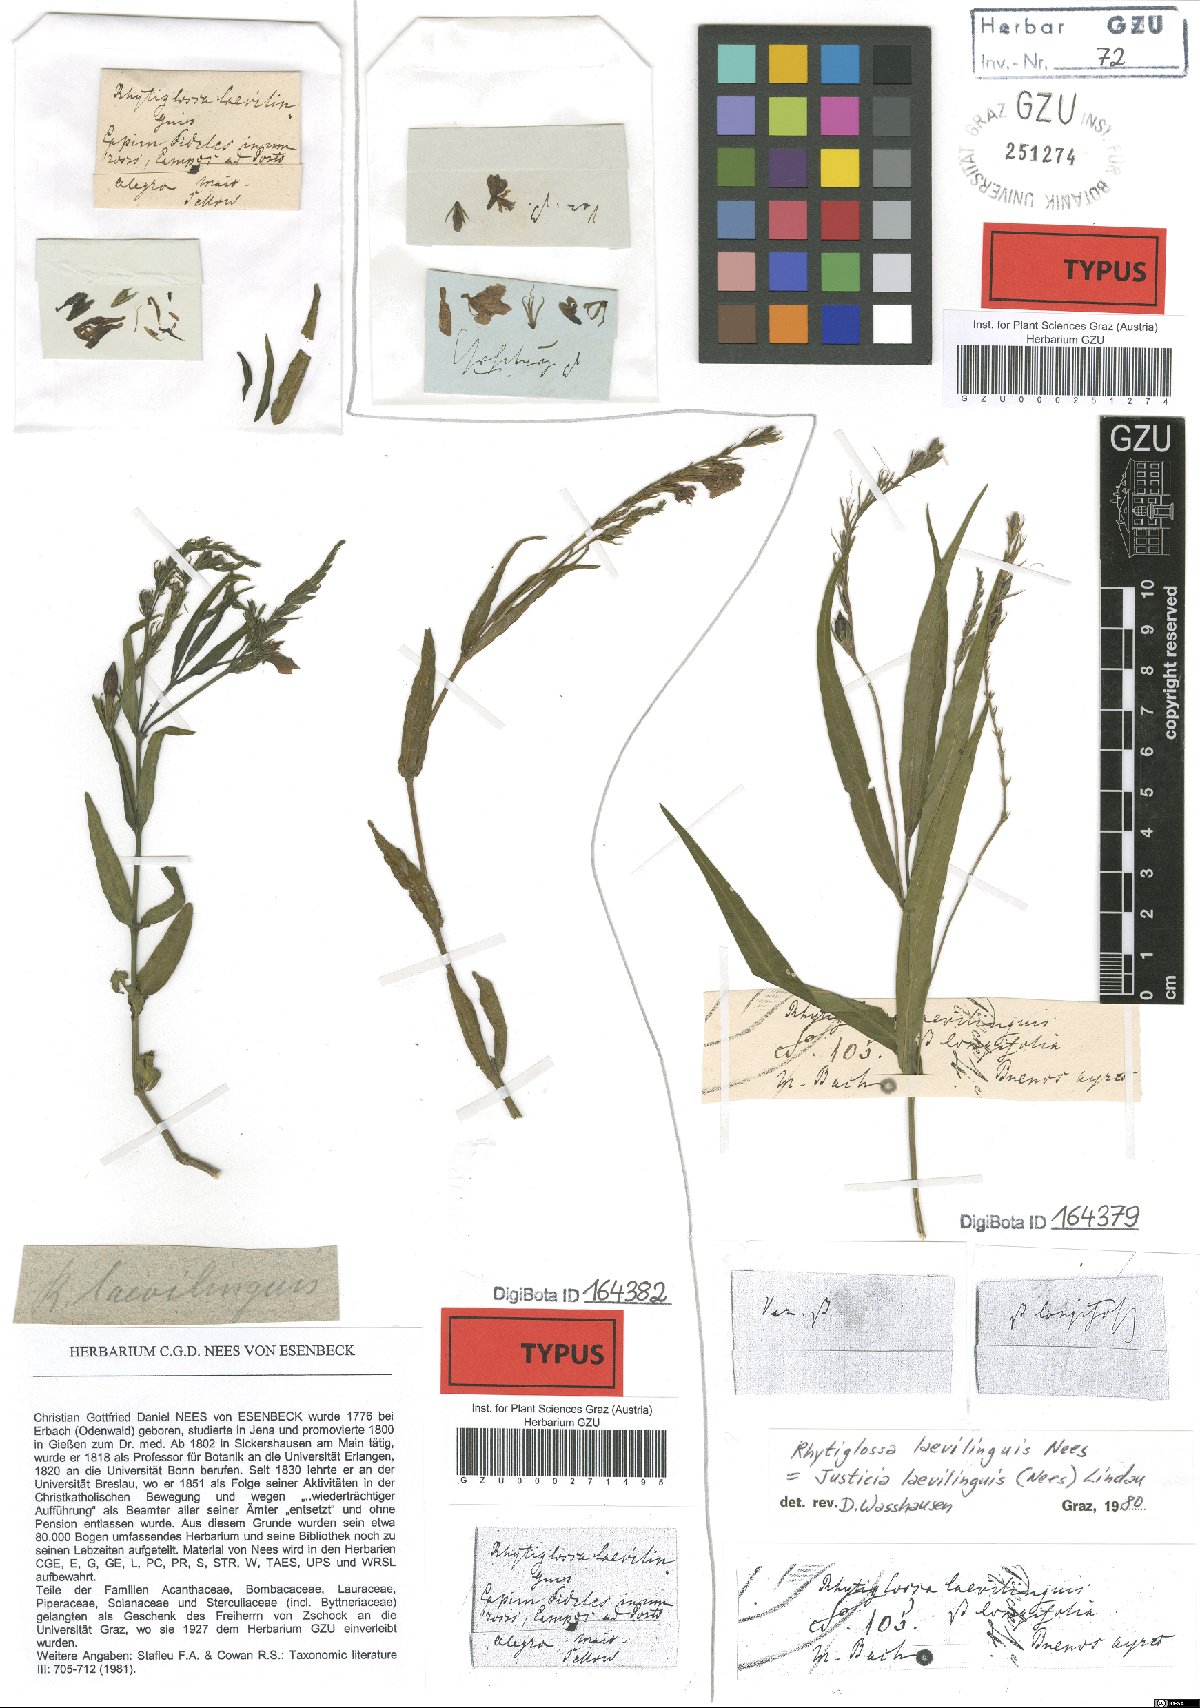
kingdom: Plantae
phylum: Tracheophyta
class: Magnoliopsida
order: Lamiales
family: Acanthaceae
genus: Dianthera
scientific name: Dianthera laevilinguis
